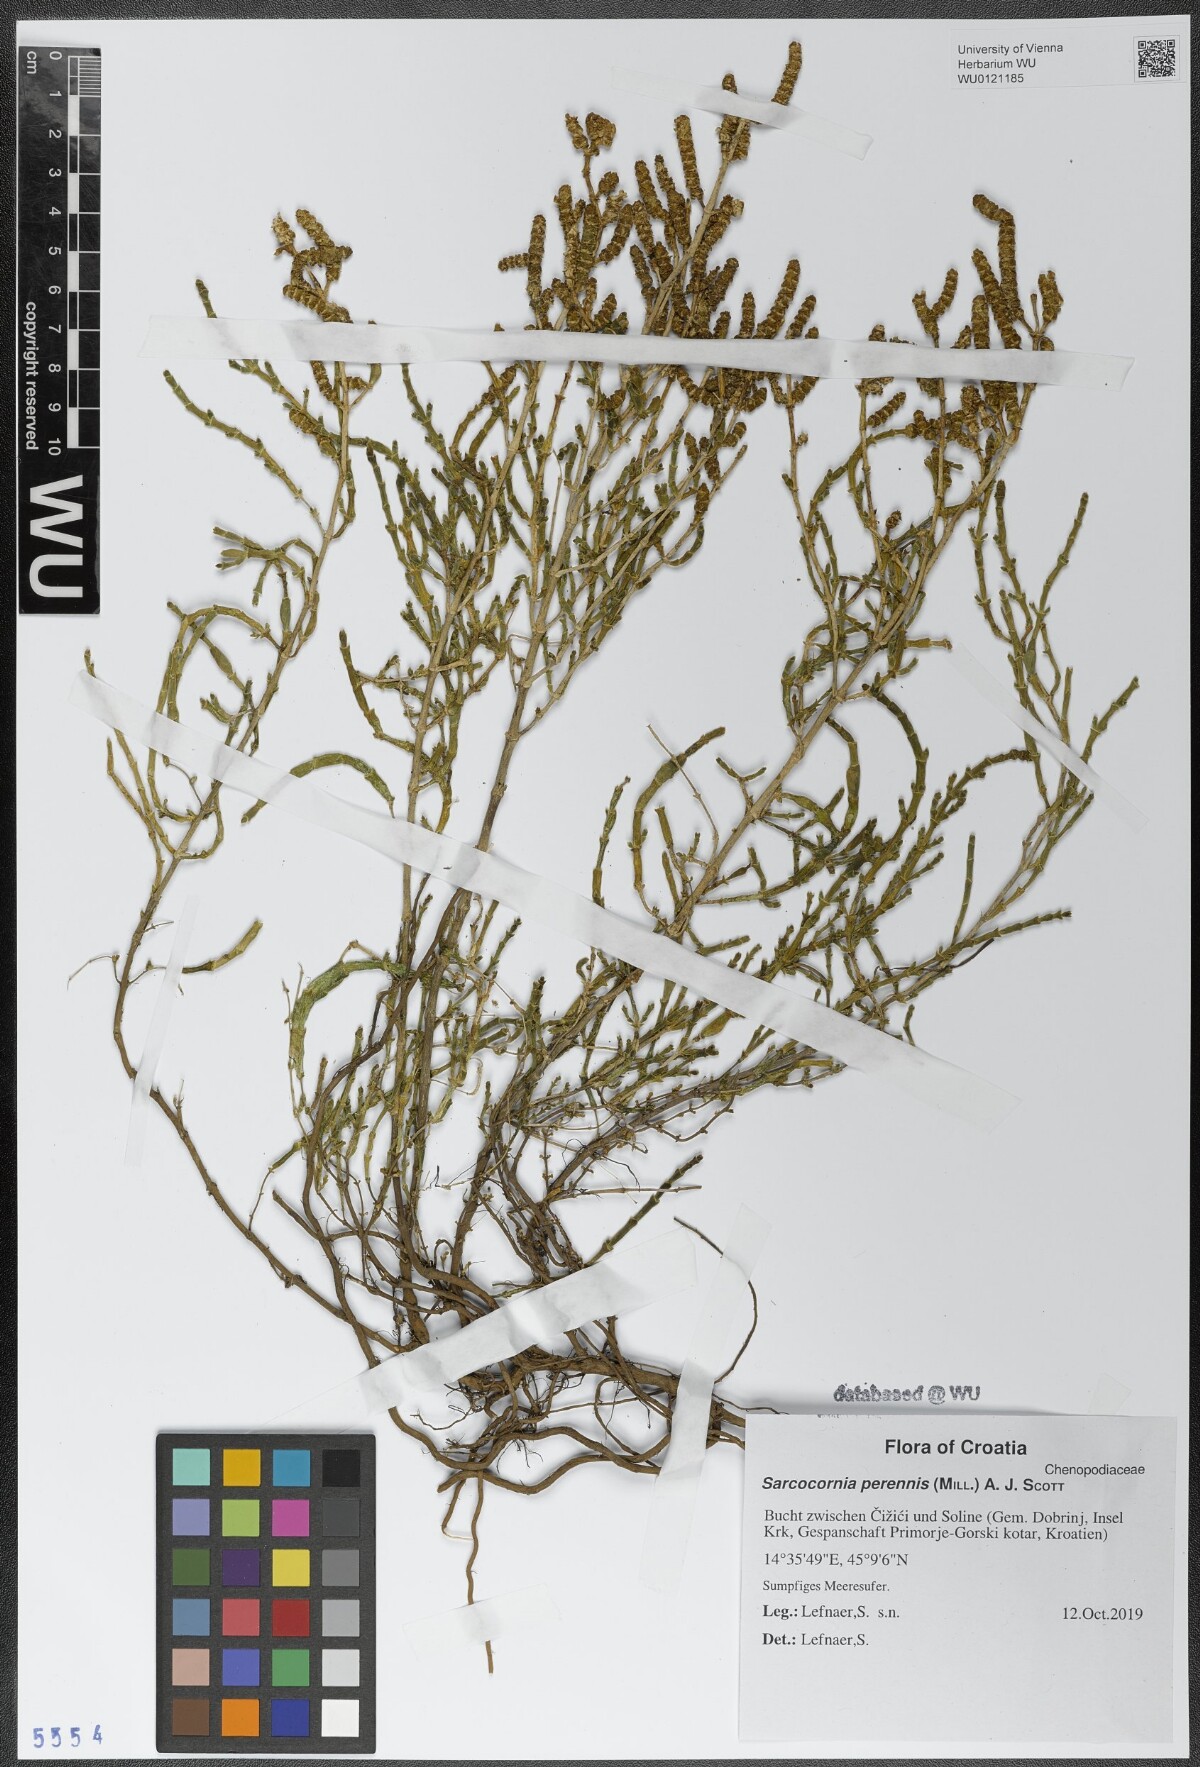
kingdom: Plantae
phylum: Tracheophyta
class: Magnoliopsida
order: Caryophyllales
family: Amaranthaceae
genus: Salicornia
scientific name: Salicornia perennis
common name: Chicken claws
